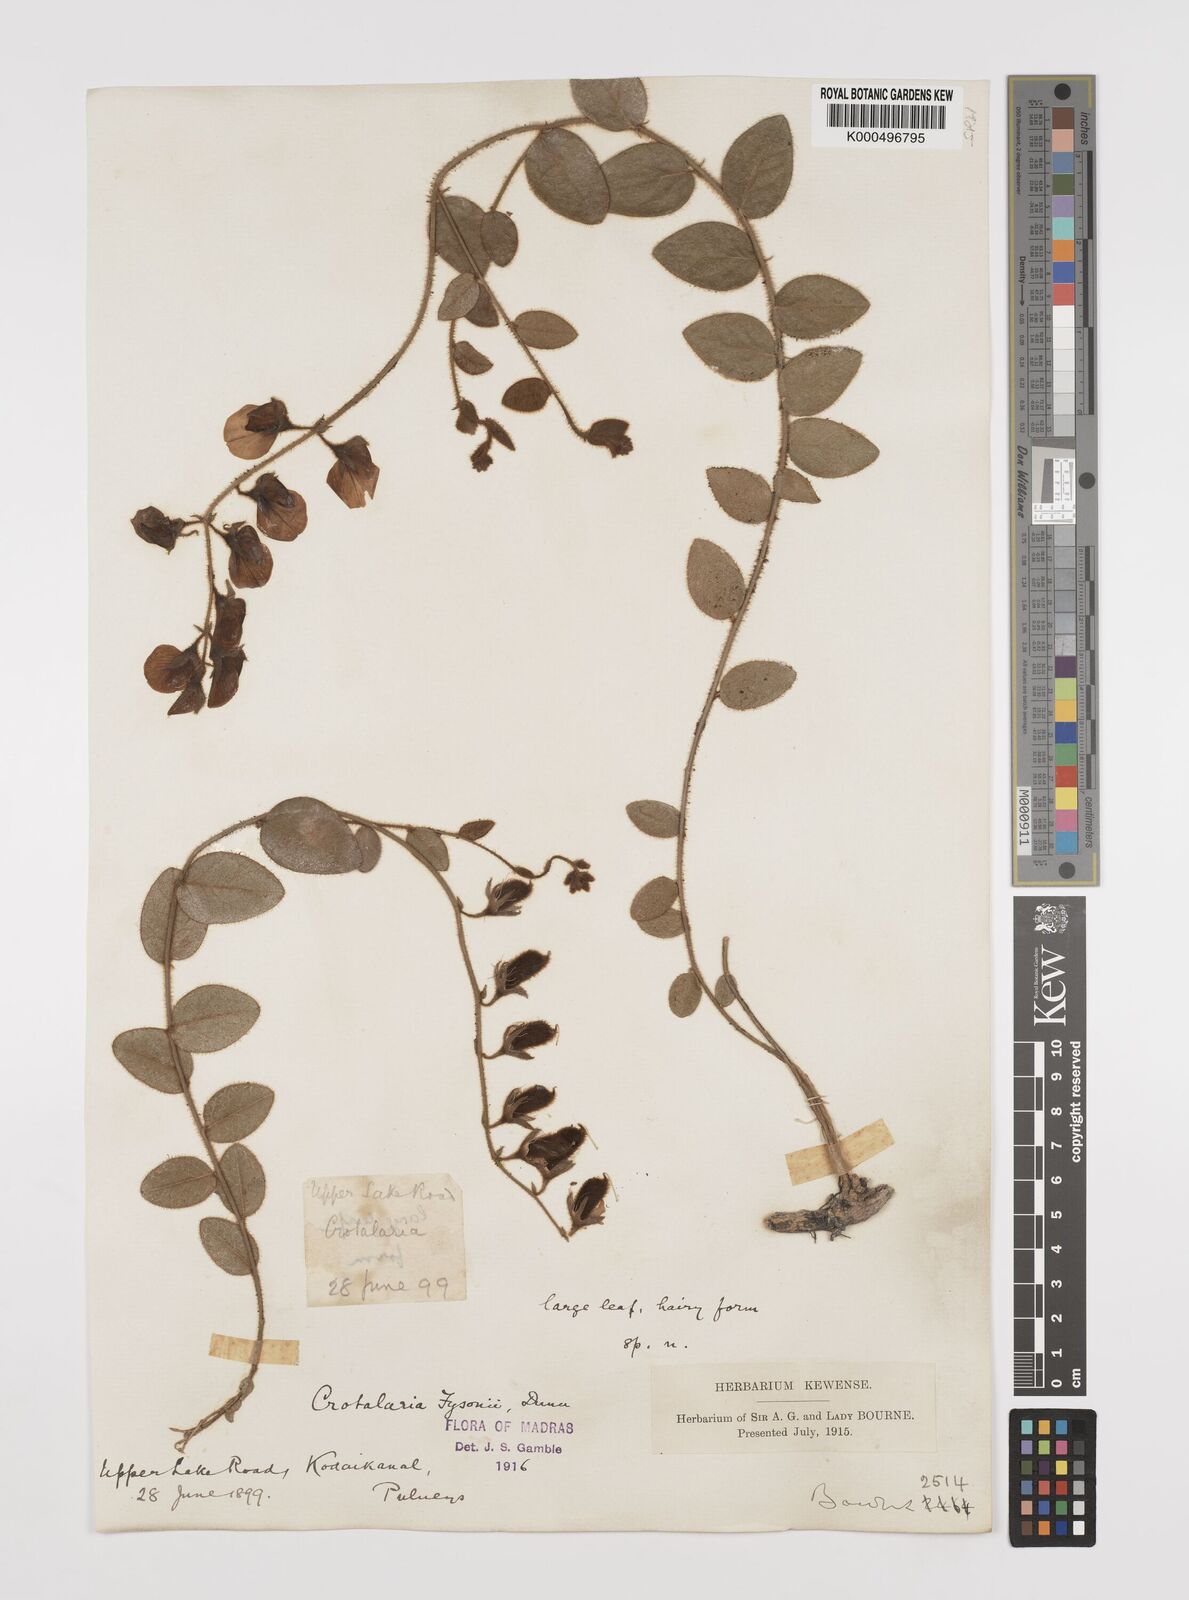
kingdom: Plantae
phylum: Tracheophyta
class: Magnoliopsida
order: Fabales
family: Fabaceae
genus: Crotalaria
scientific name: Crotalaria fysonii
